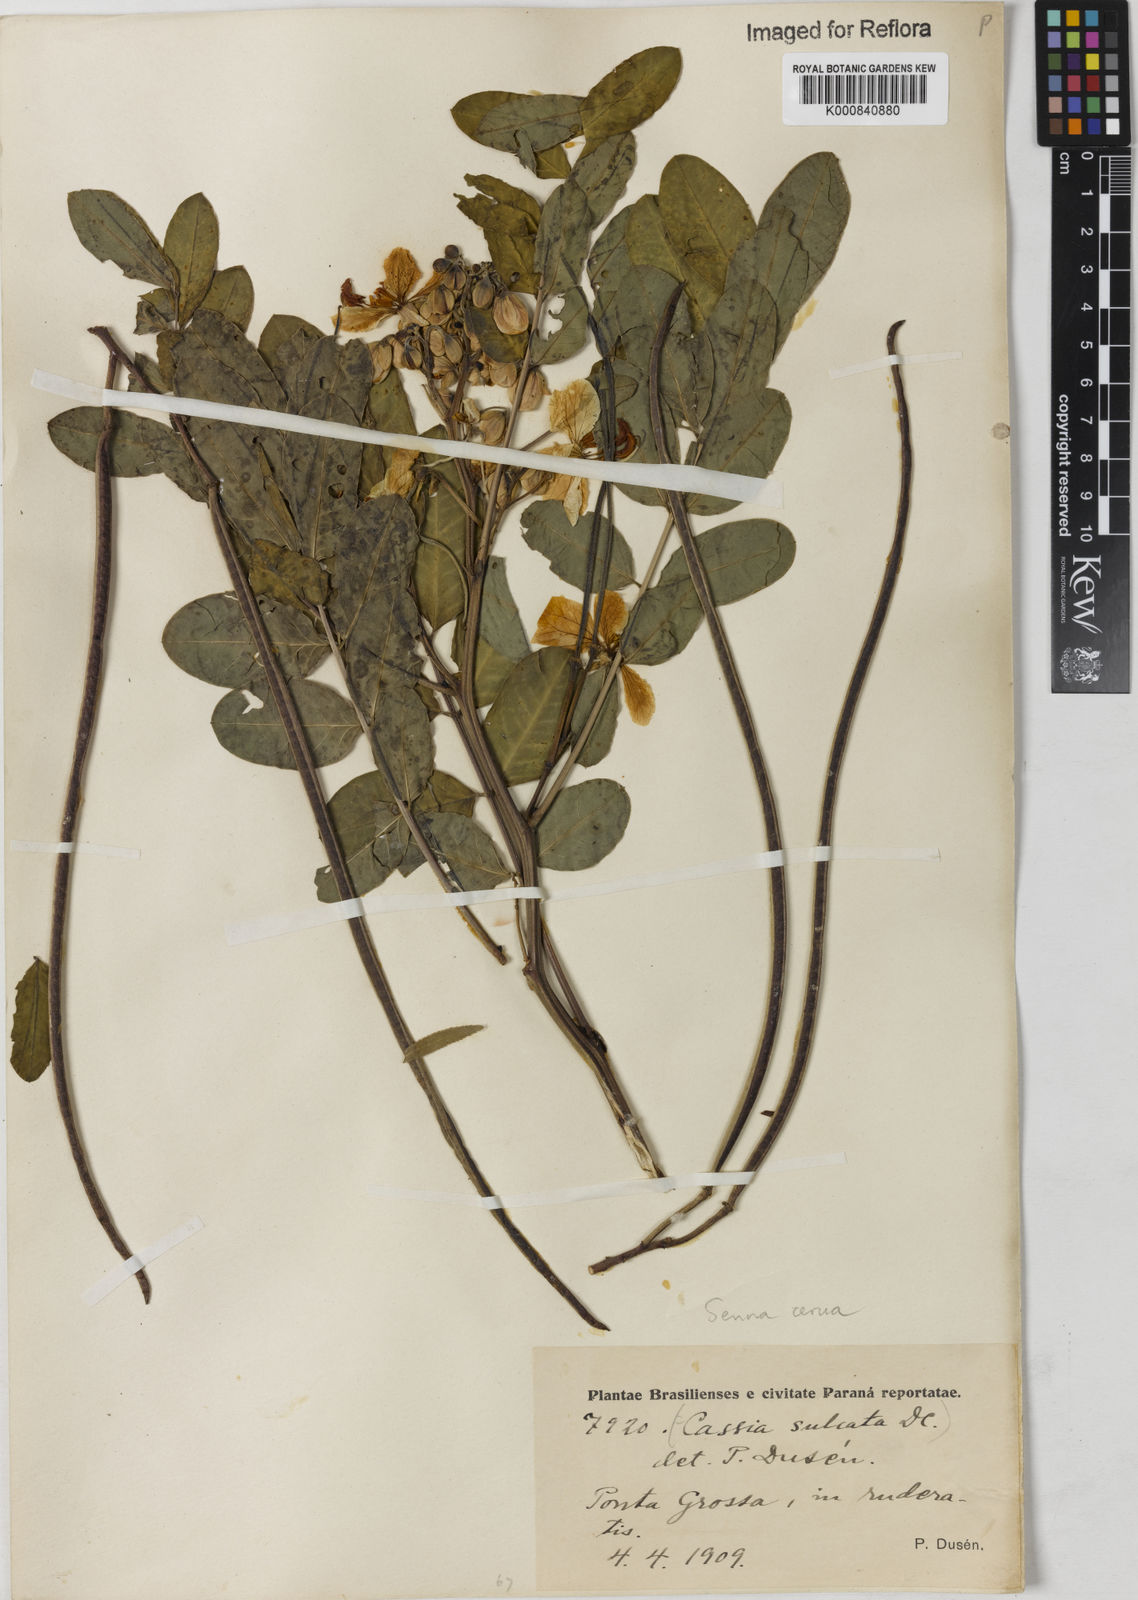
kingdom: Plantae
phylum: Tracheophyta
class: Magnoliopsida
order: Fabales
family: Fabaceae
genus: Senna
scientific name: Senna cernua
